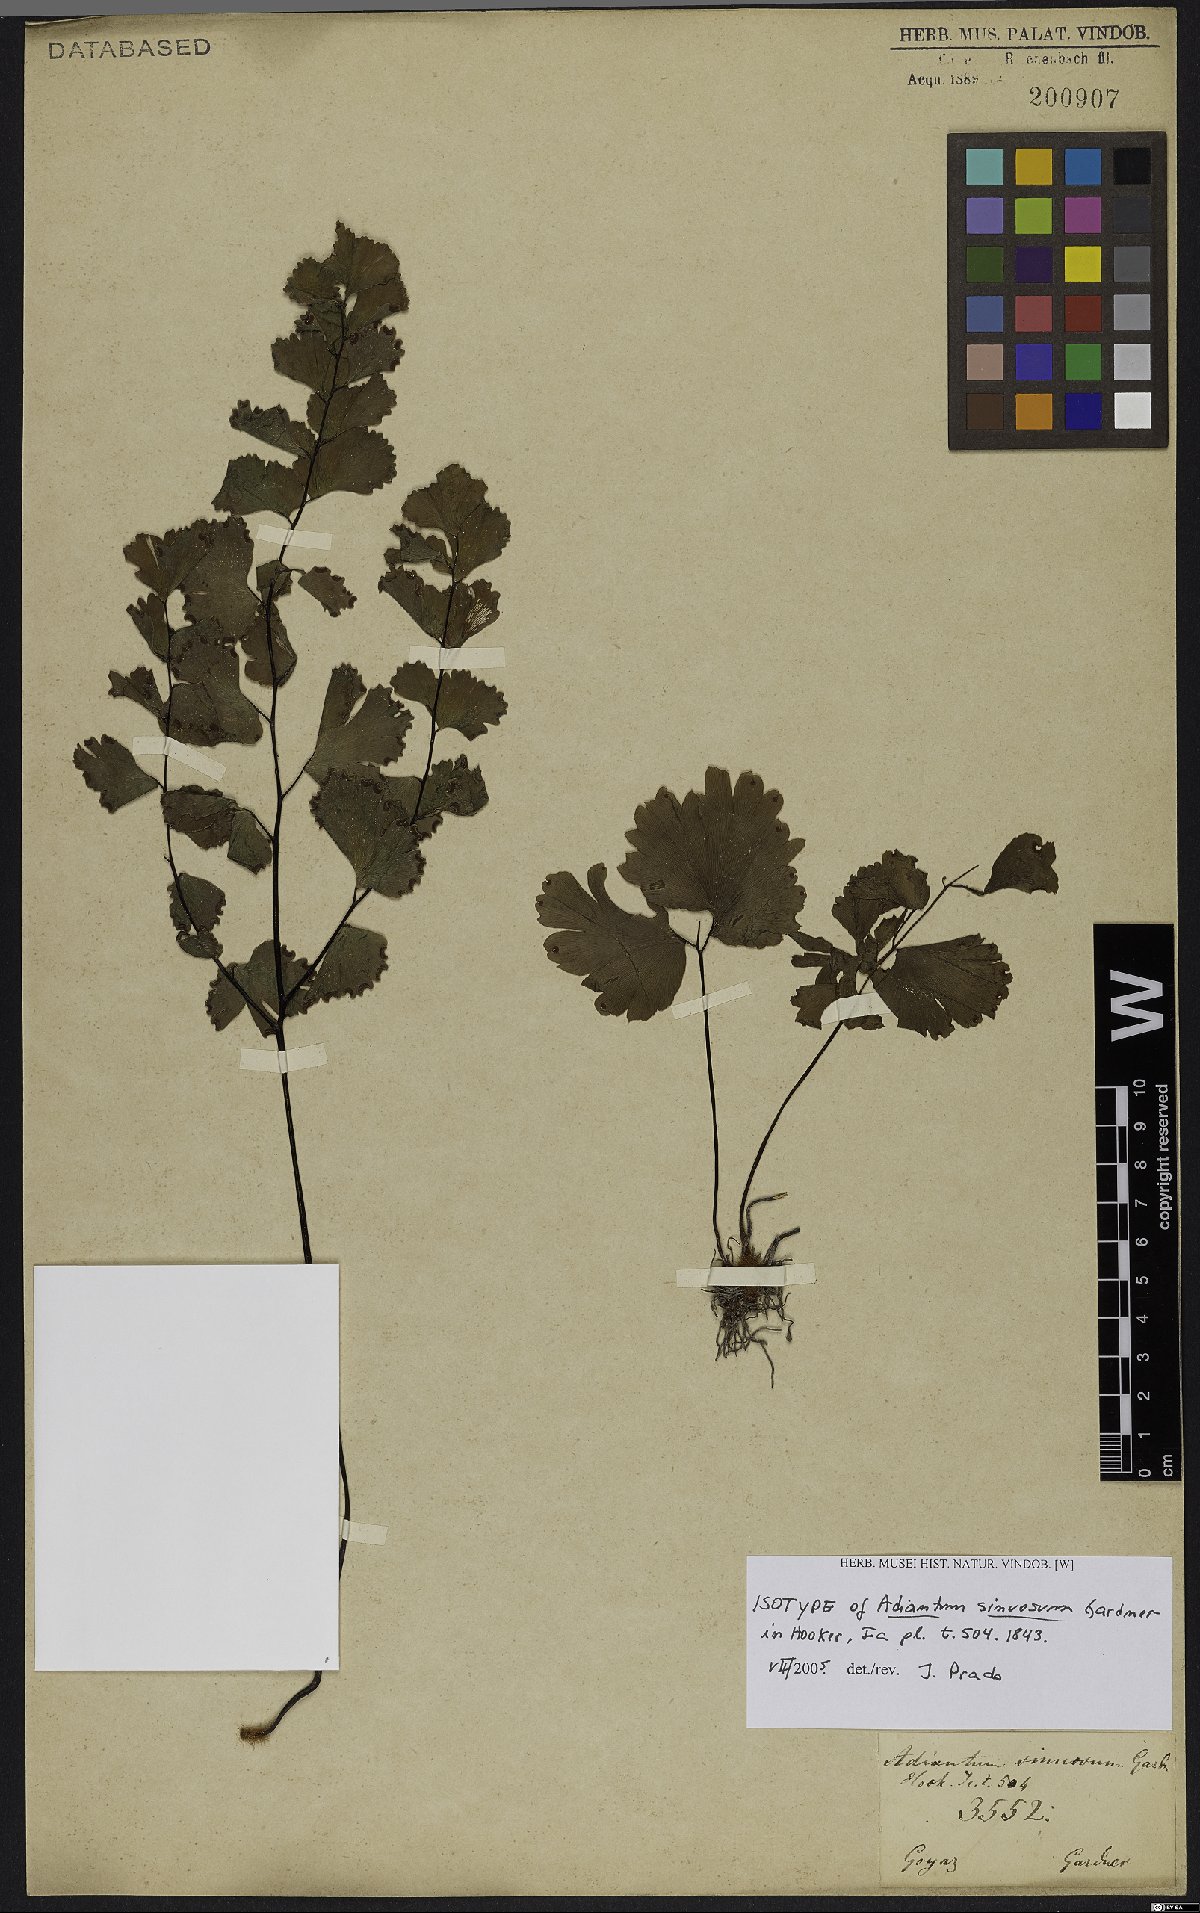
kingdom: Plantae
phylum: Tracheophyta
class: Polypodiopsida
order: Polypodiales
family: Pteridaceae
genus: Adiantum
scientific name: Adiantum sinuosum
